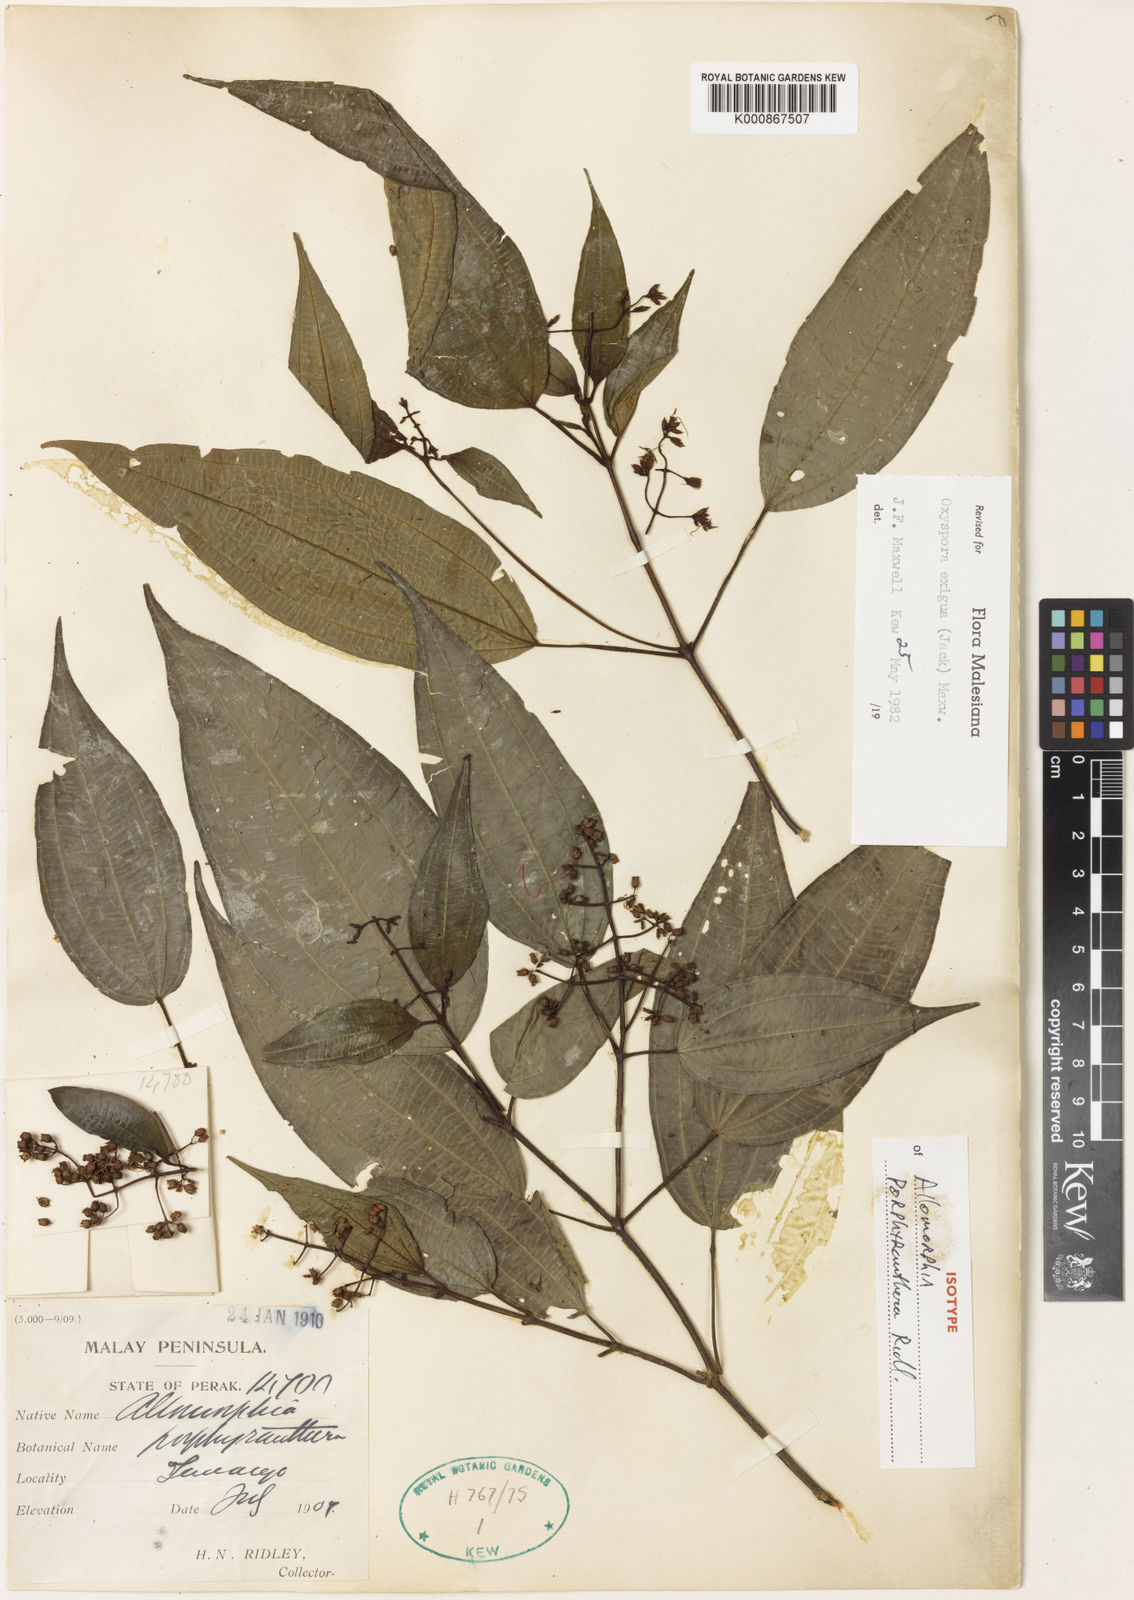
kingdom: Plantae
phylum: Tracheophyta
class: Magnoliopsida
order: Myrtales
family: Melastomataceae
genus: Allomorphia
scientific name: Allomorphia exigua
